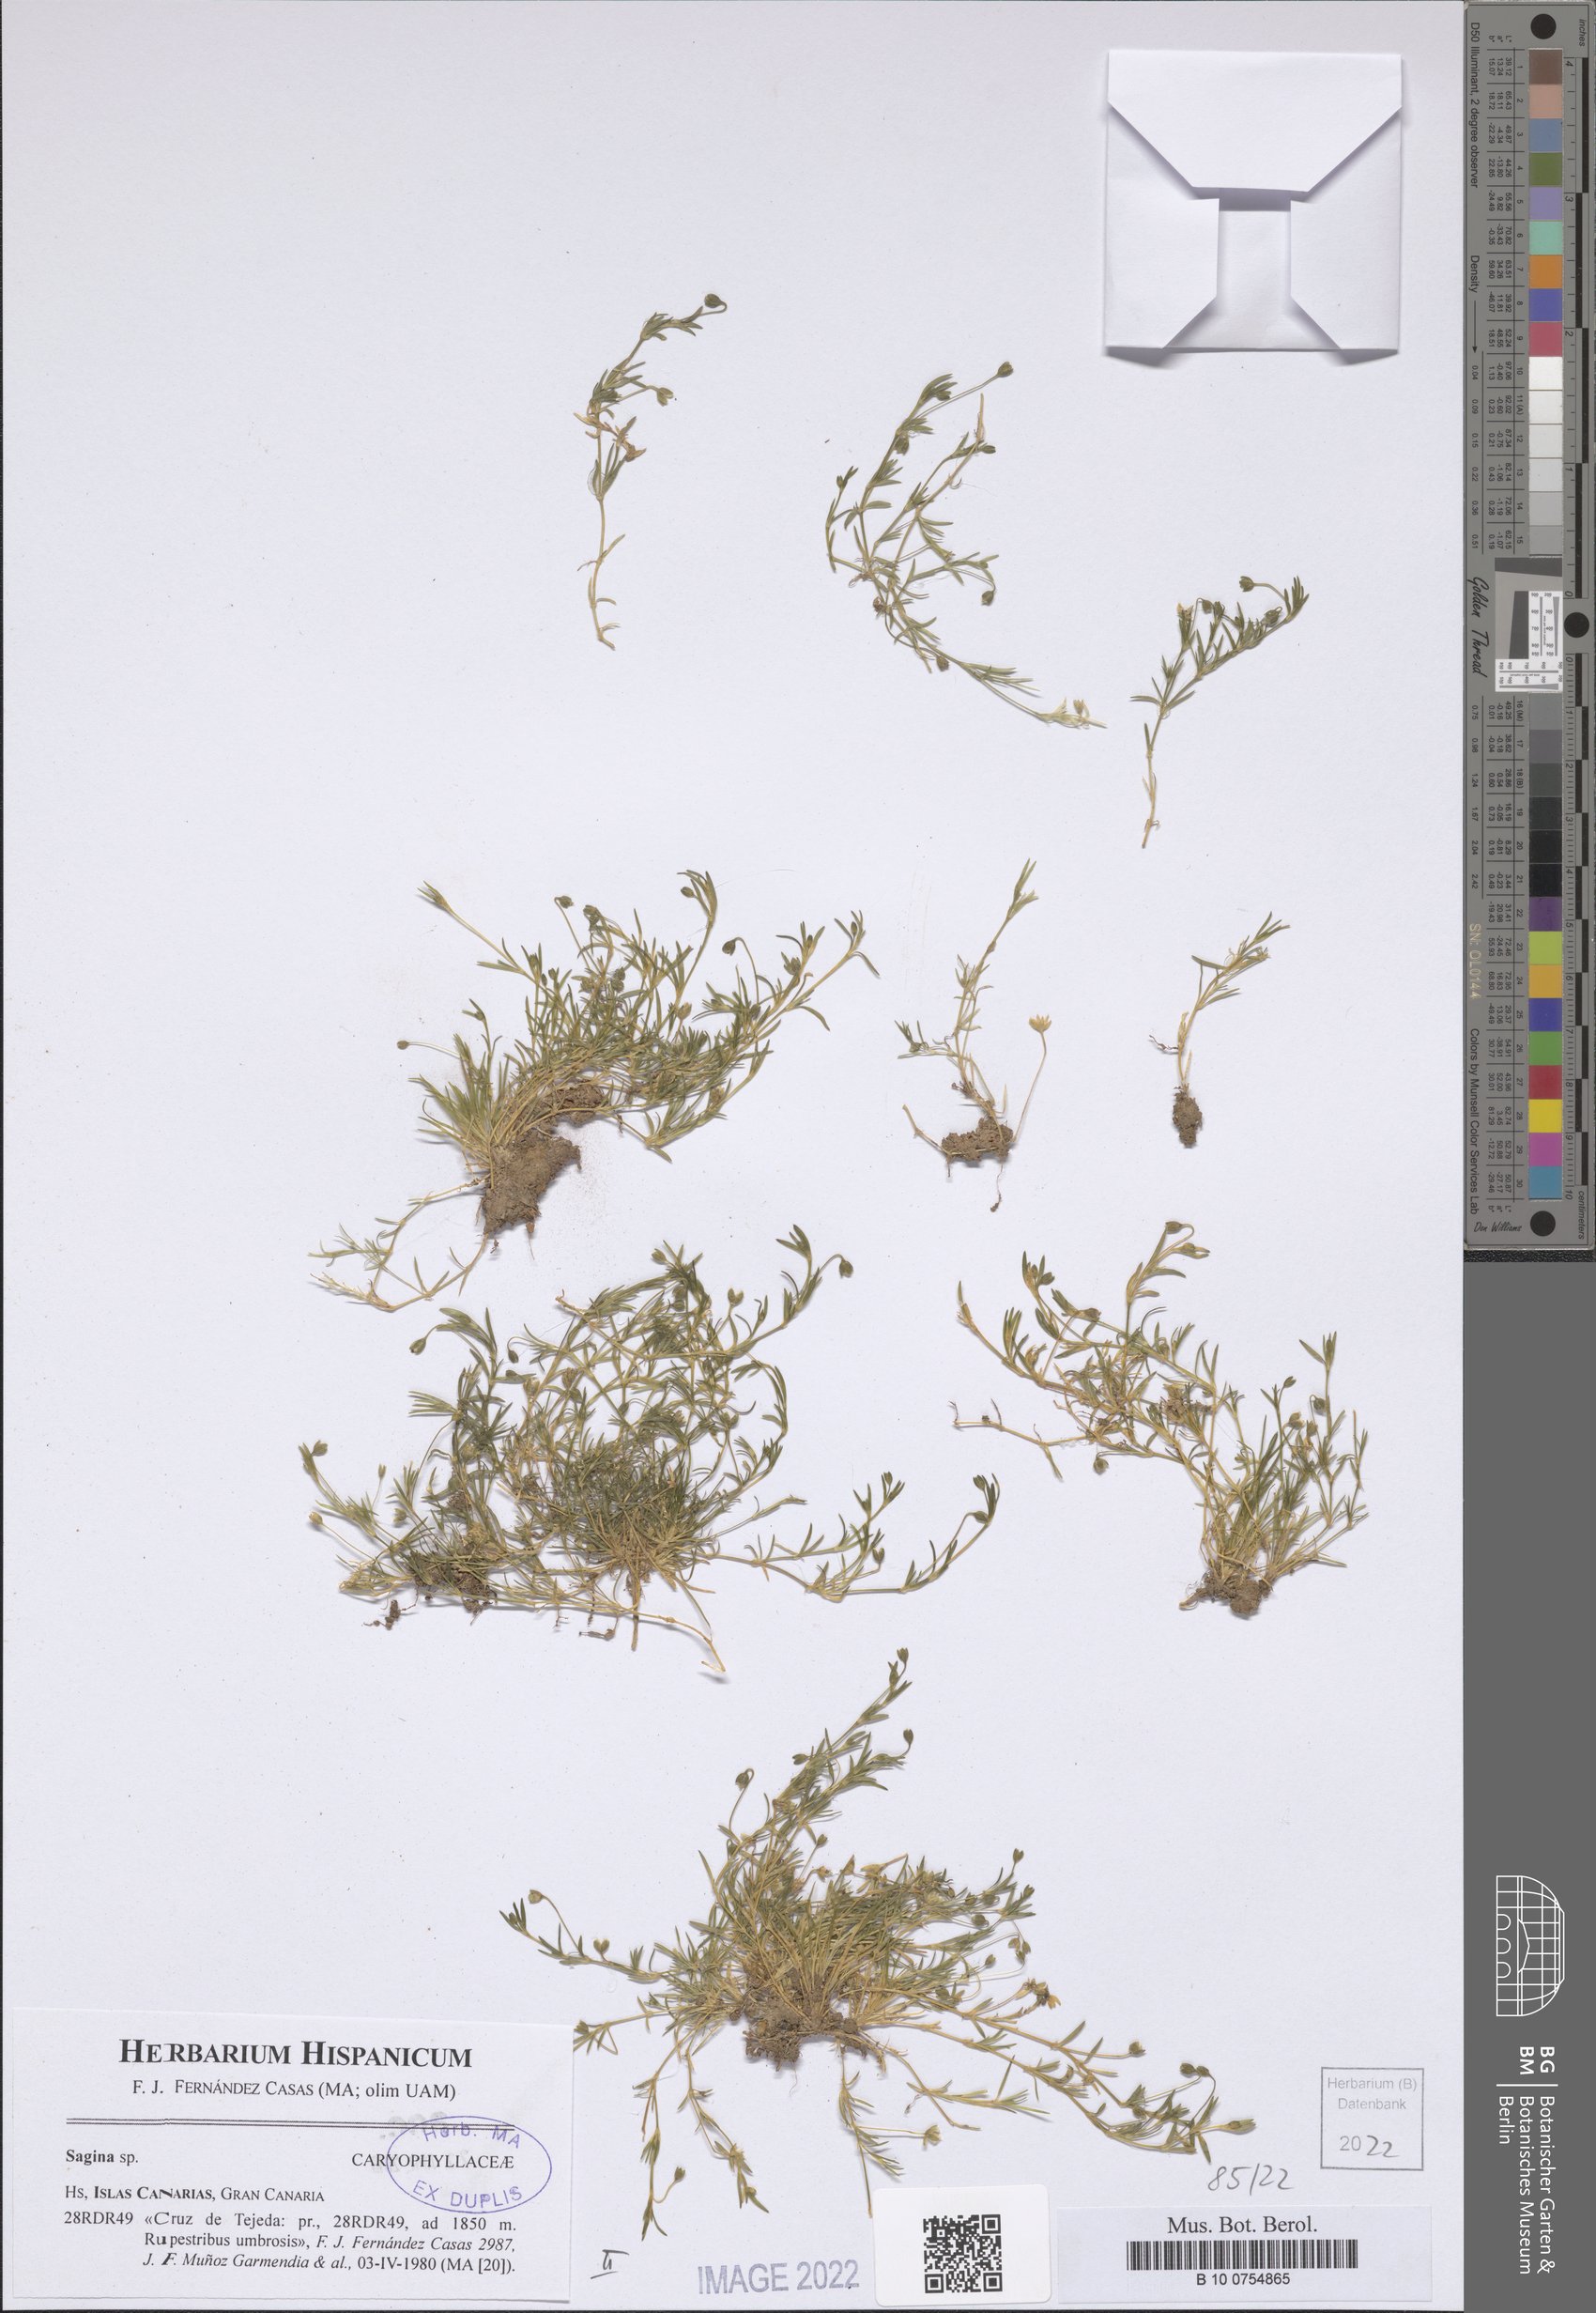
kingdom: Plantae
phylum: Tracheophyta
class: Magnoliopsida
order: Caryophyllales
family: Caryophyllaceae
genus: Sagina
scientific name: Sagina
